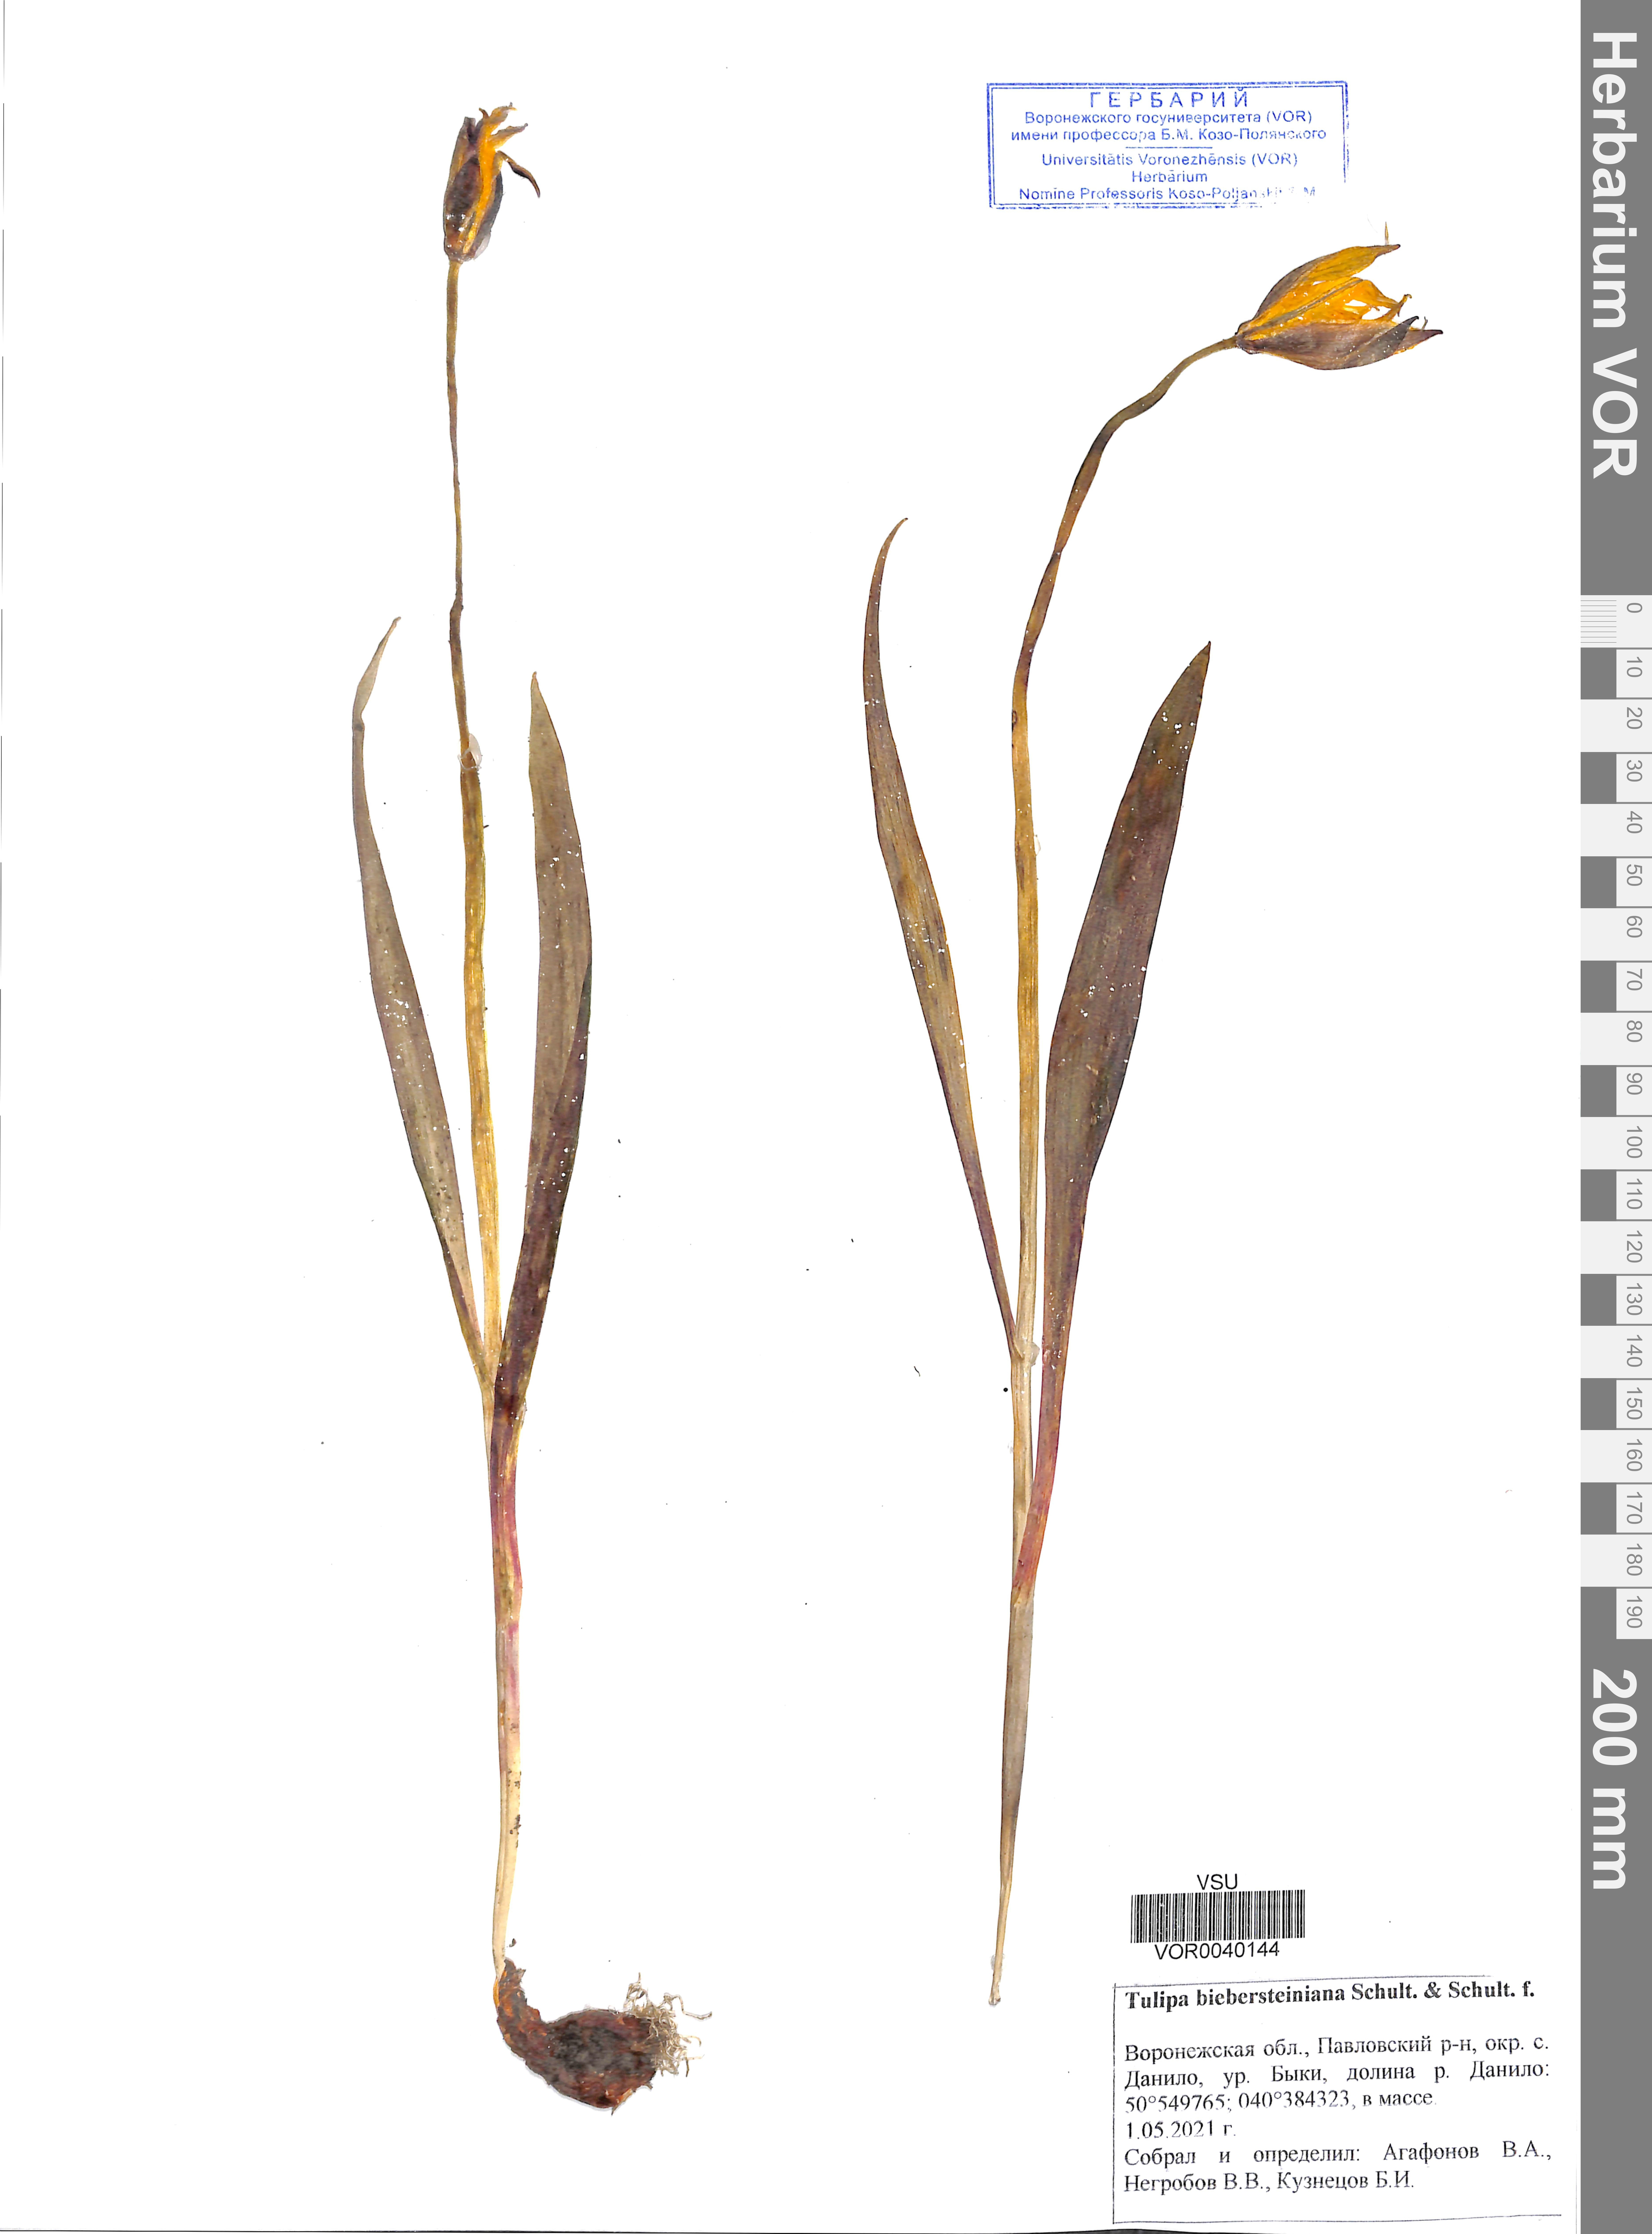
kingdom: Plantae
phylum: Tracheophyta
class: Liliopsida
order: Liliales
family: Liliaceae
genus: Tulipa
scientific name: Tulipa sylvestris
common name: Wild tulip
